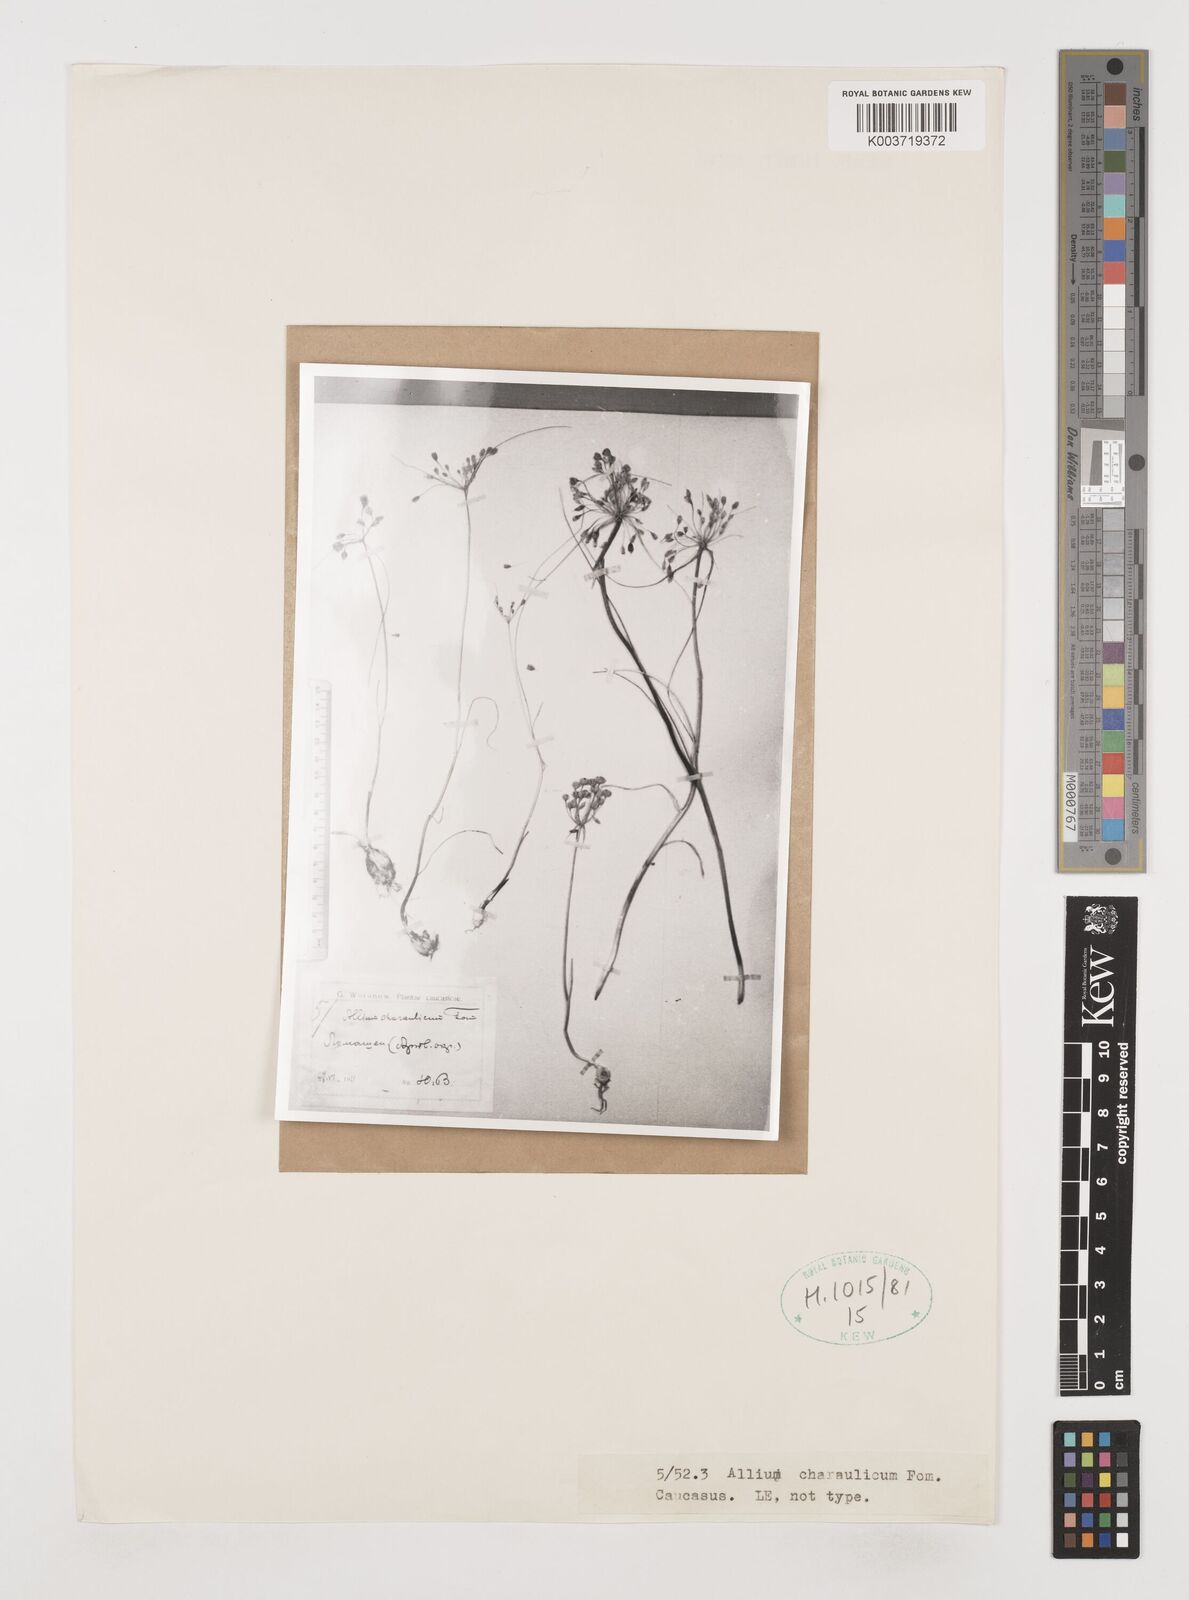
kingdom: Plantae
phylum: Tracheophyta
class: Liliopsida
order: Asparagales
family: Amaryllidaceae
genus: Allium
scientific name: Allium rupestre
